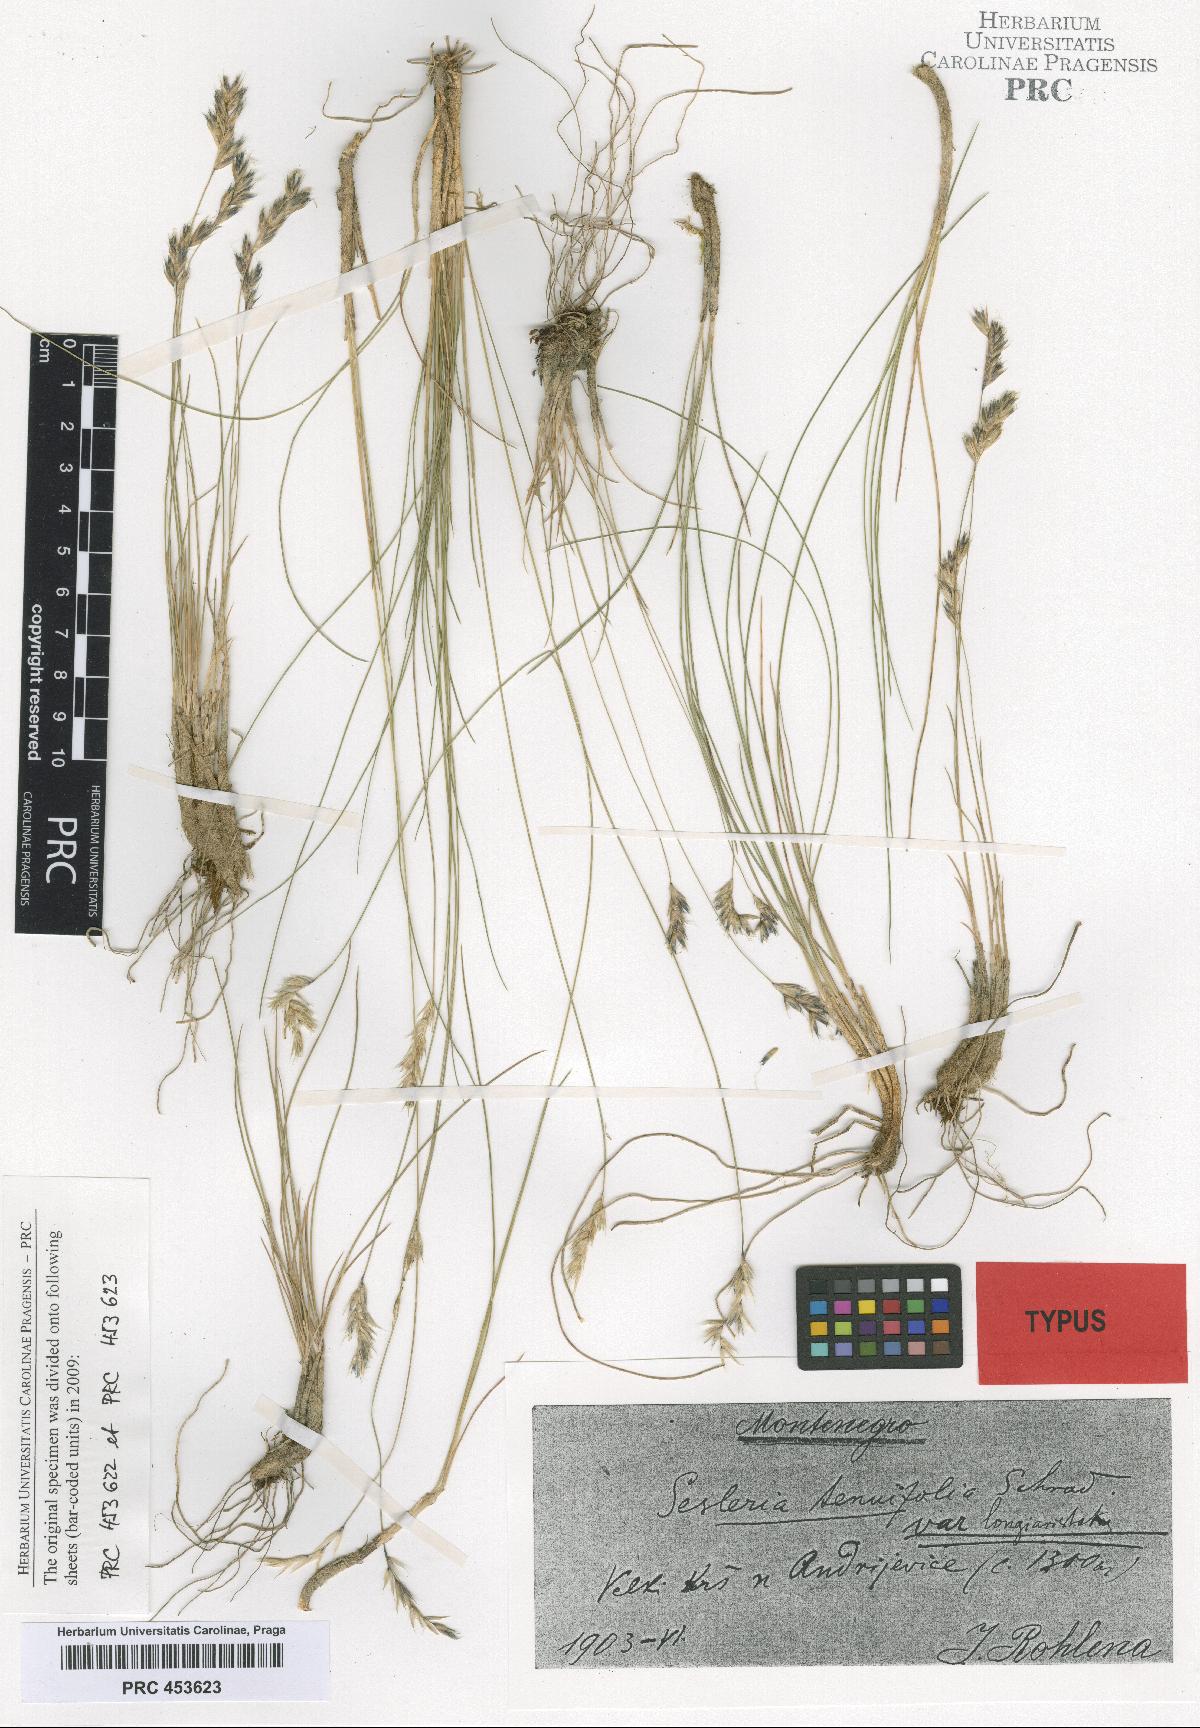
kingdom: Plantae
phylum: Tracheophyta
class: Liliopsida
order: Poales
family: Poaceae
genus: Sesleria
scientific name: Sesleria
